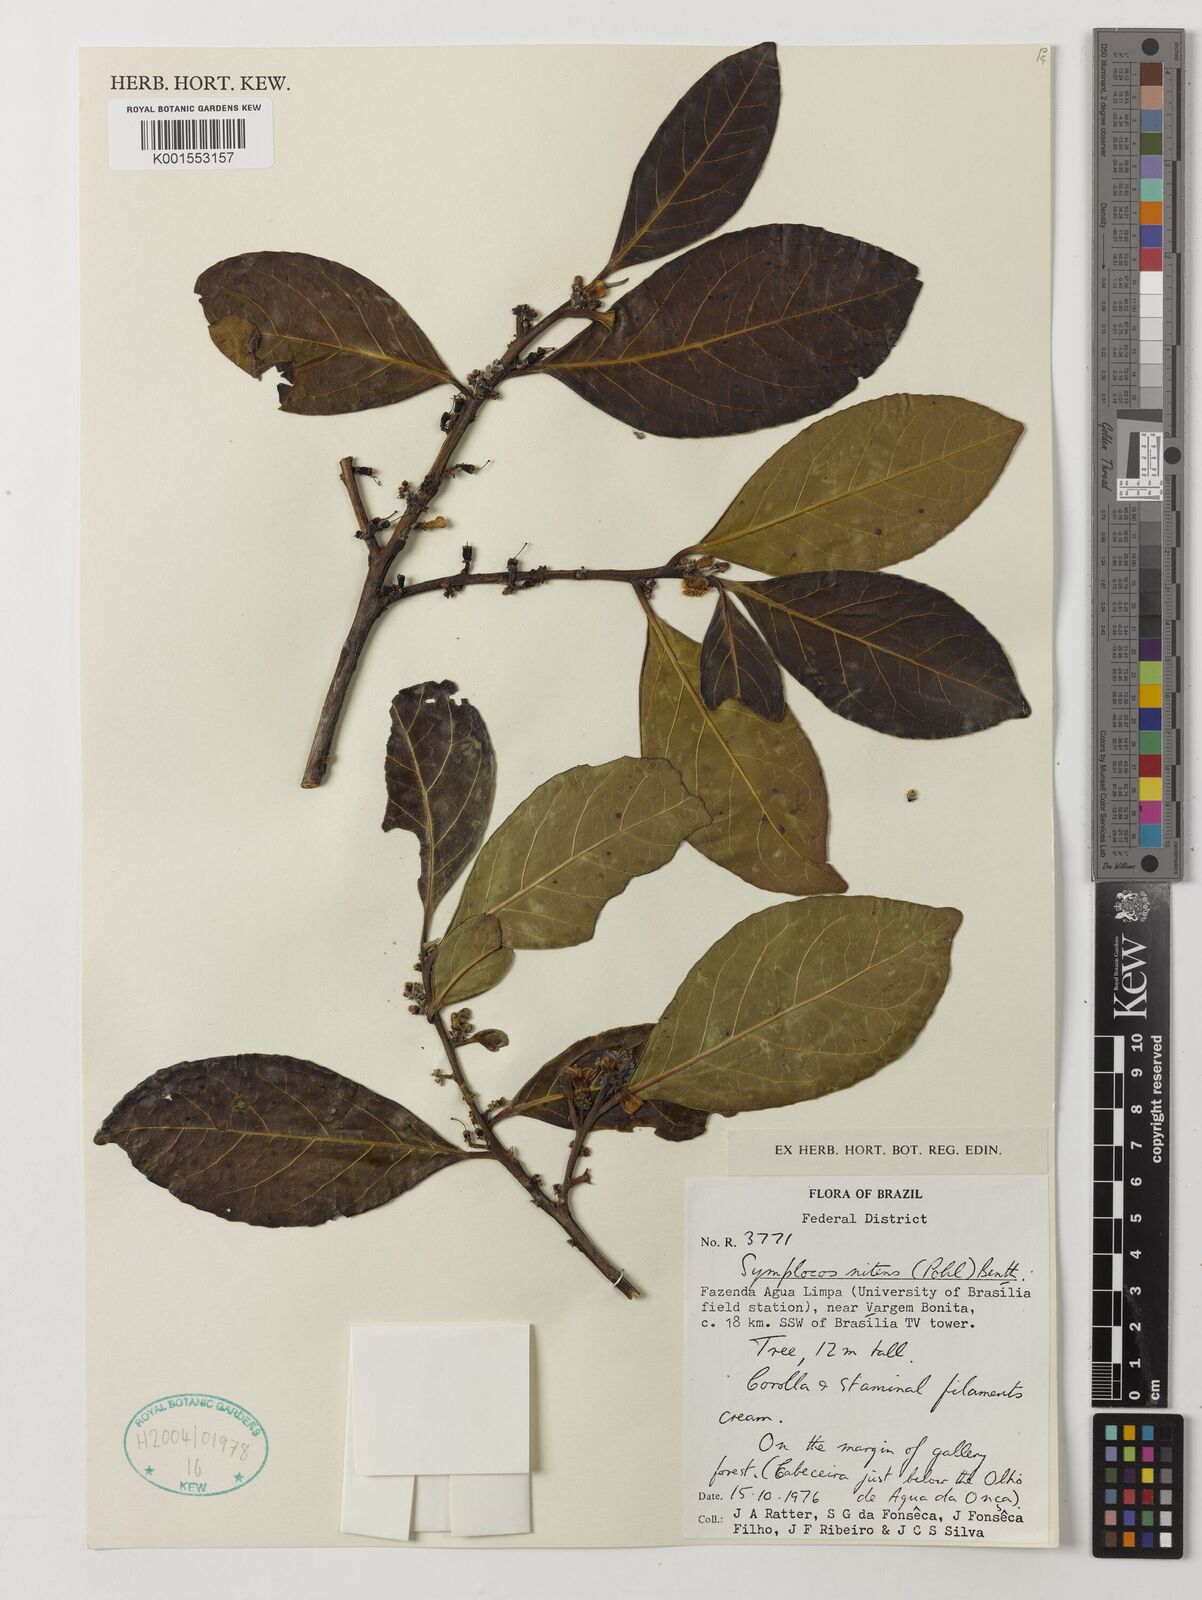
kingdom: Plantae
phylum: Tracheophyta
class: Magnoliopsida
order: Ericales
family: Symplocaceae
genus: Symplocos
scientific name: Symplocos nitens
